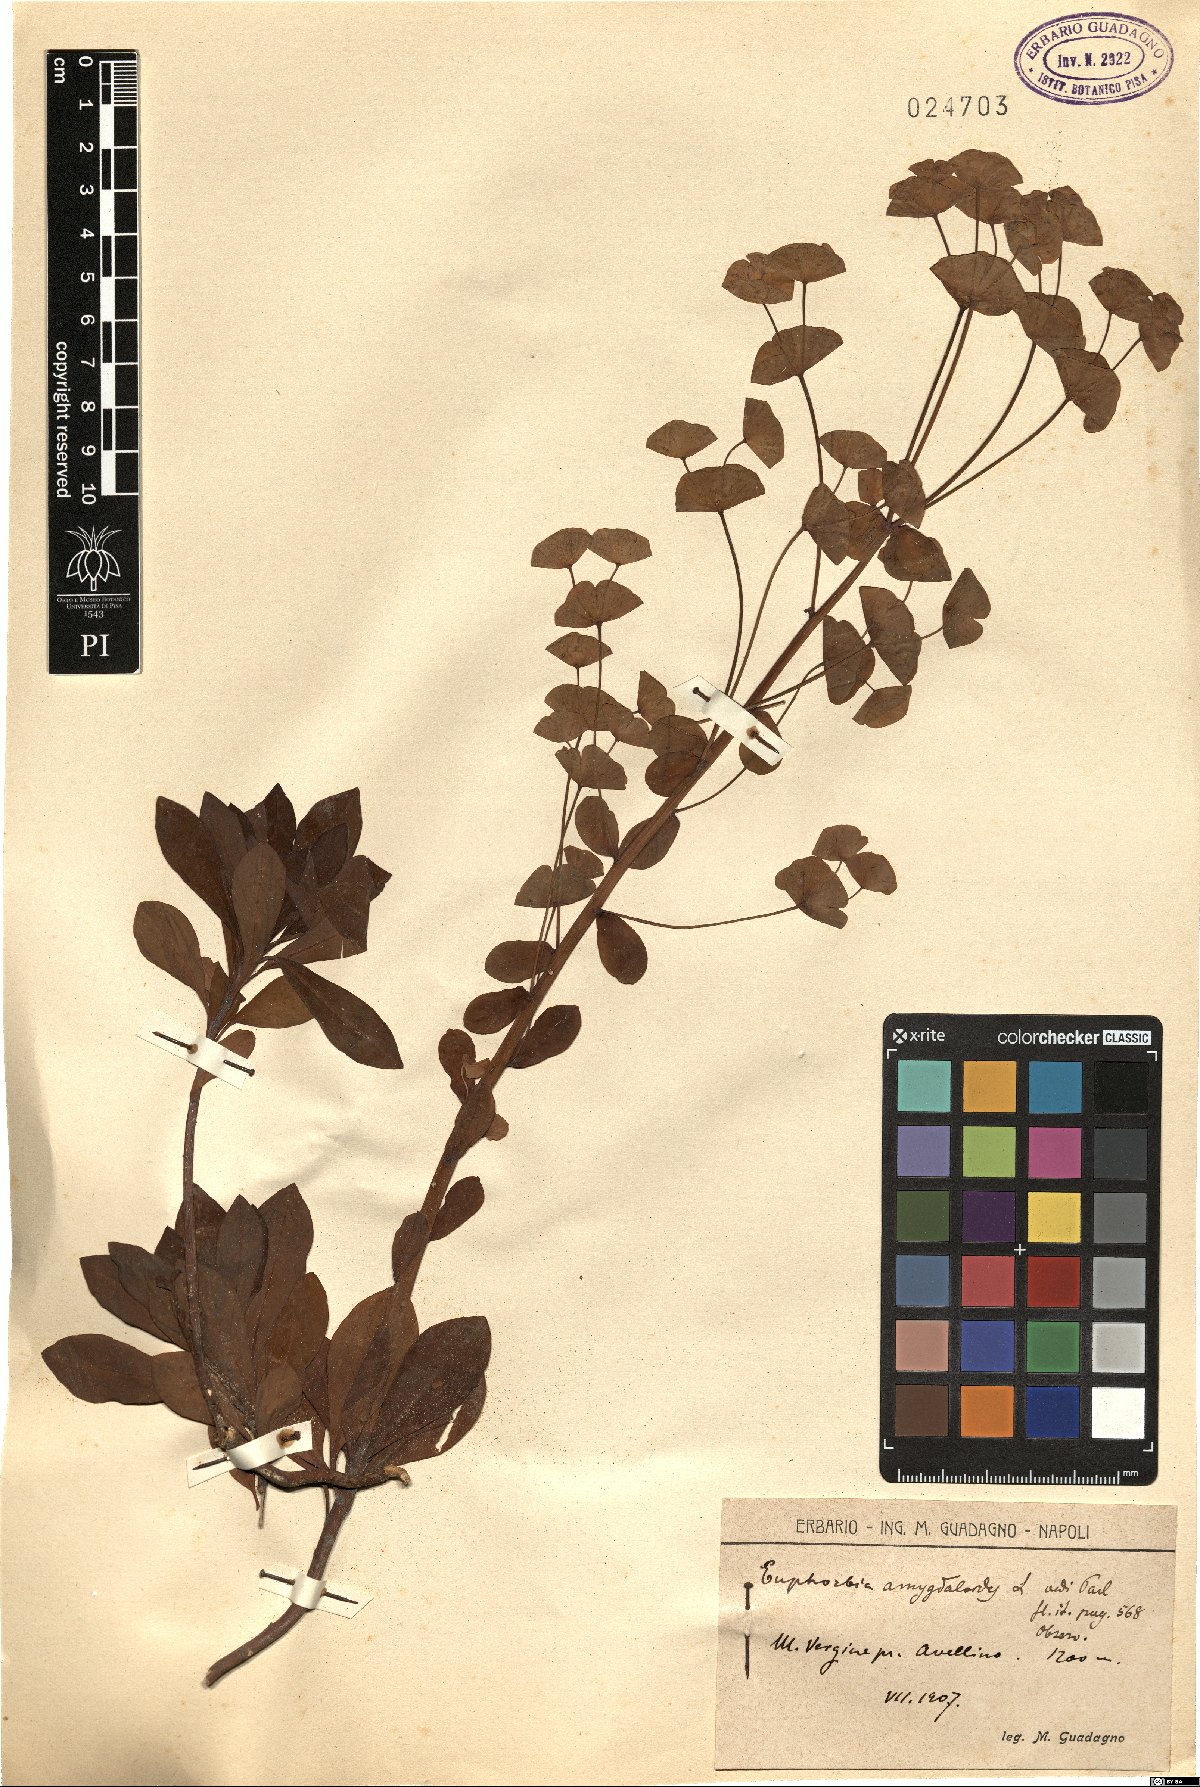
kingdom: Plantae
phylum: Tracheophyta
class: Magnoliopsida
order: Malpighiales
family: Euphorbiaceae
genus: Euphorbia
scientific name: Euphorbia amygdaloides
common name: Wood spurge
